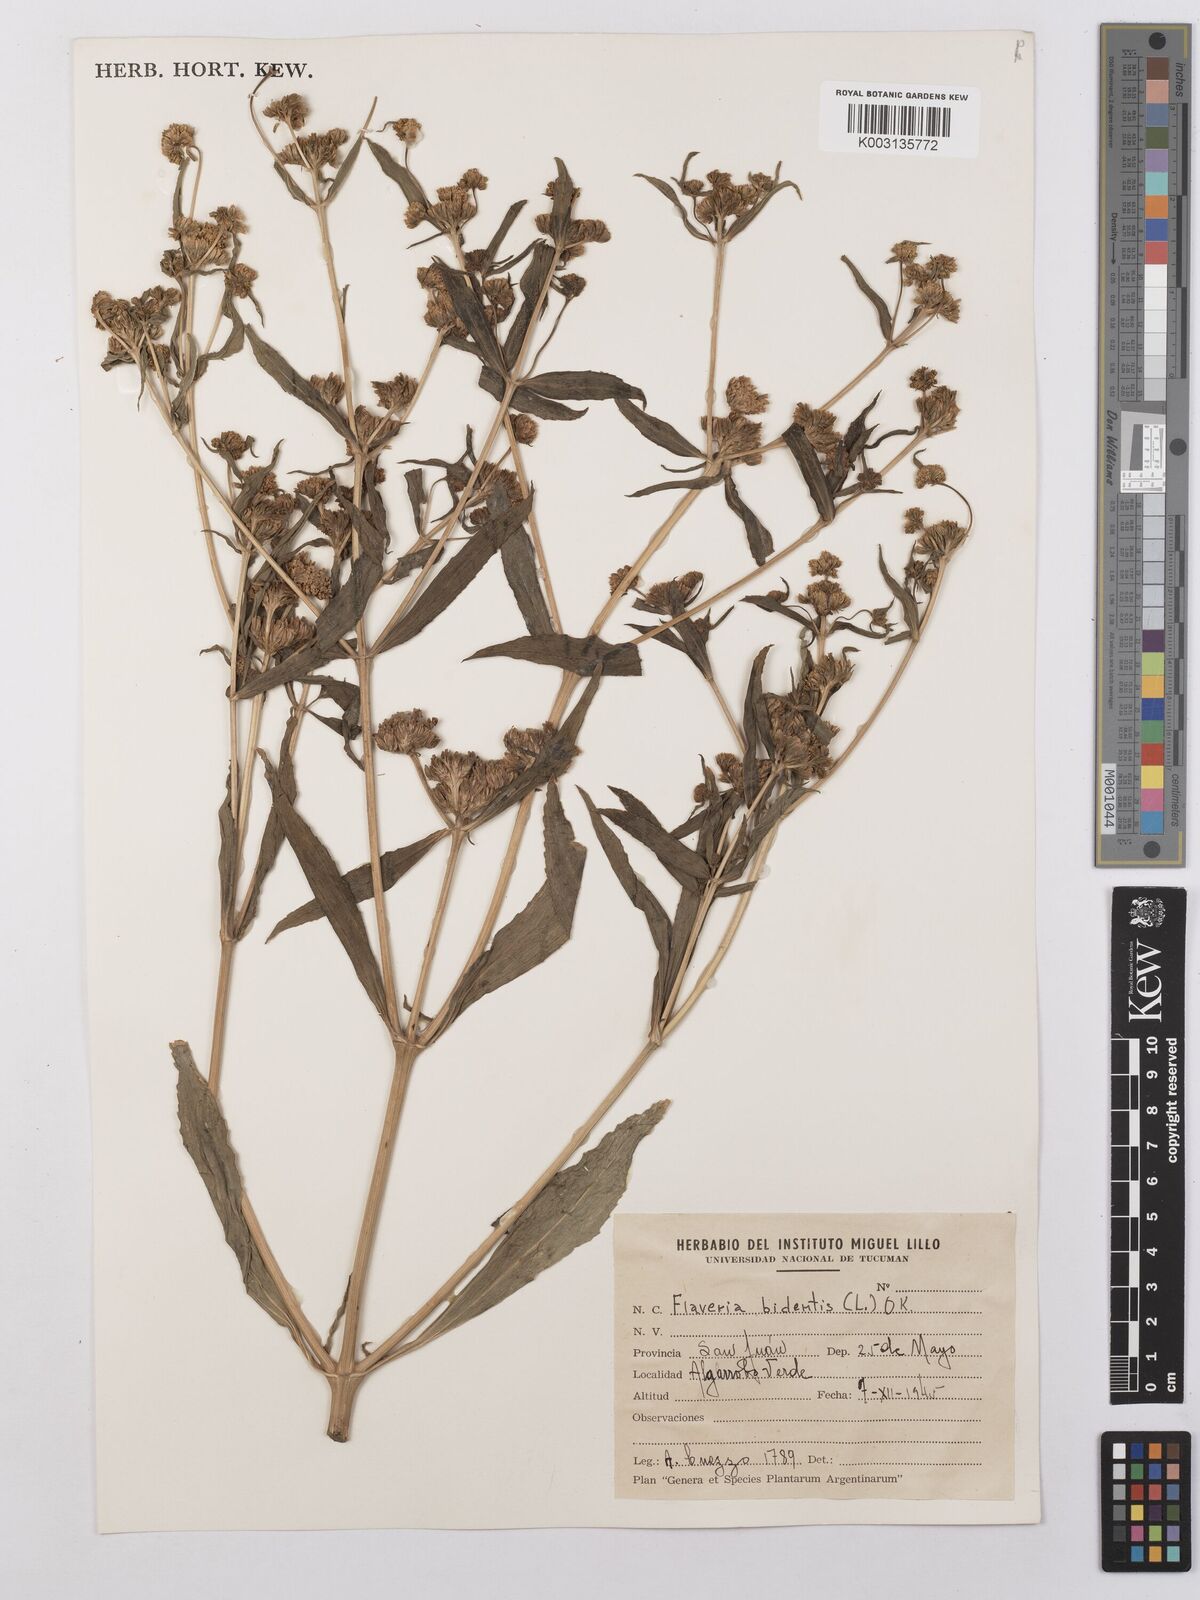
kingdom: Plantae
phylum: Tracheophyta
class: Magnoliopsida
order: Asterales
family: Asteraceae
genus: Flaveria
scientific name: Flaveria bidentis
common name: Coastal plain yellowtops
